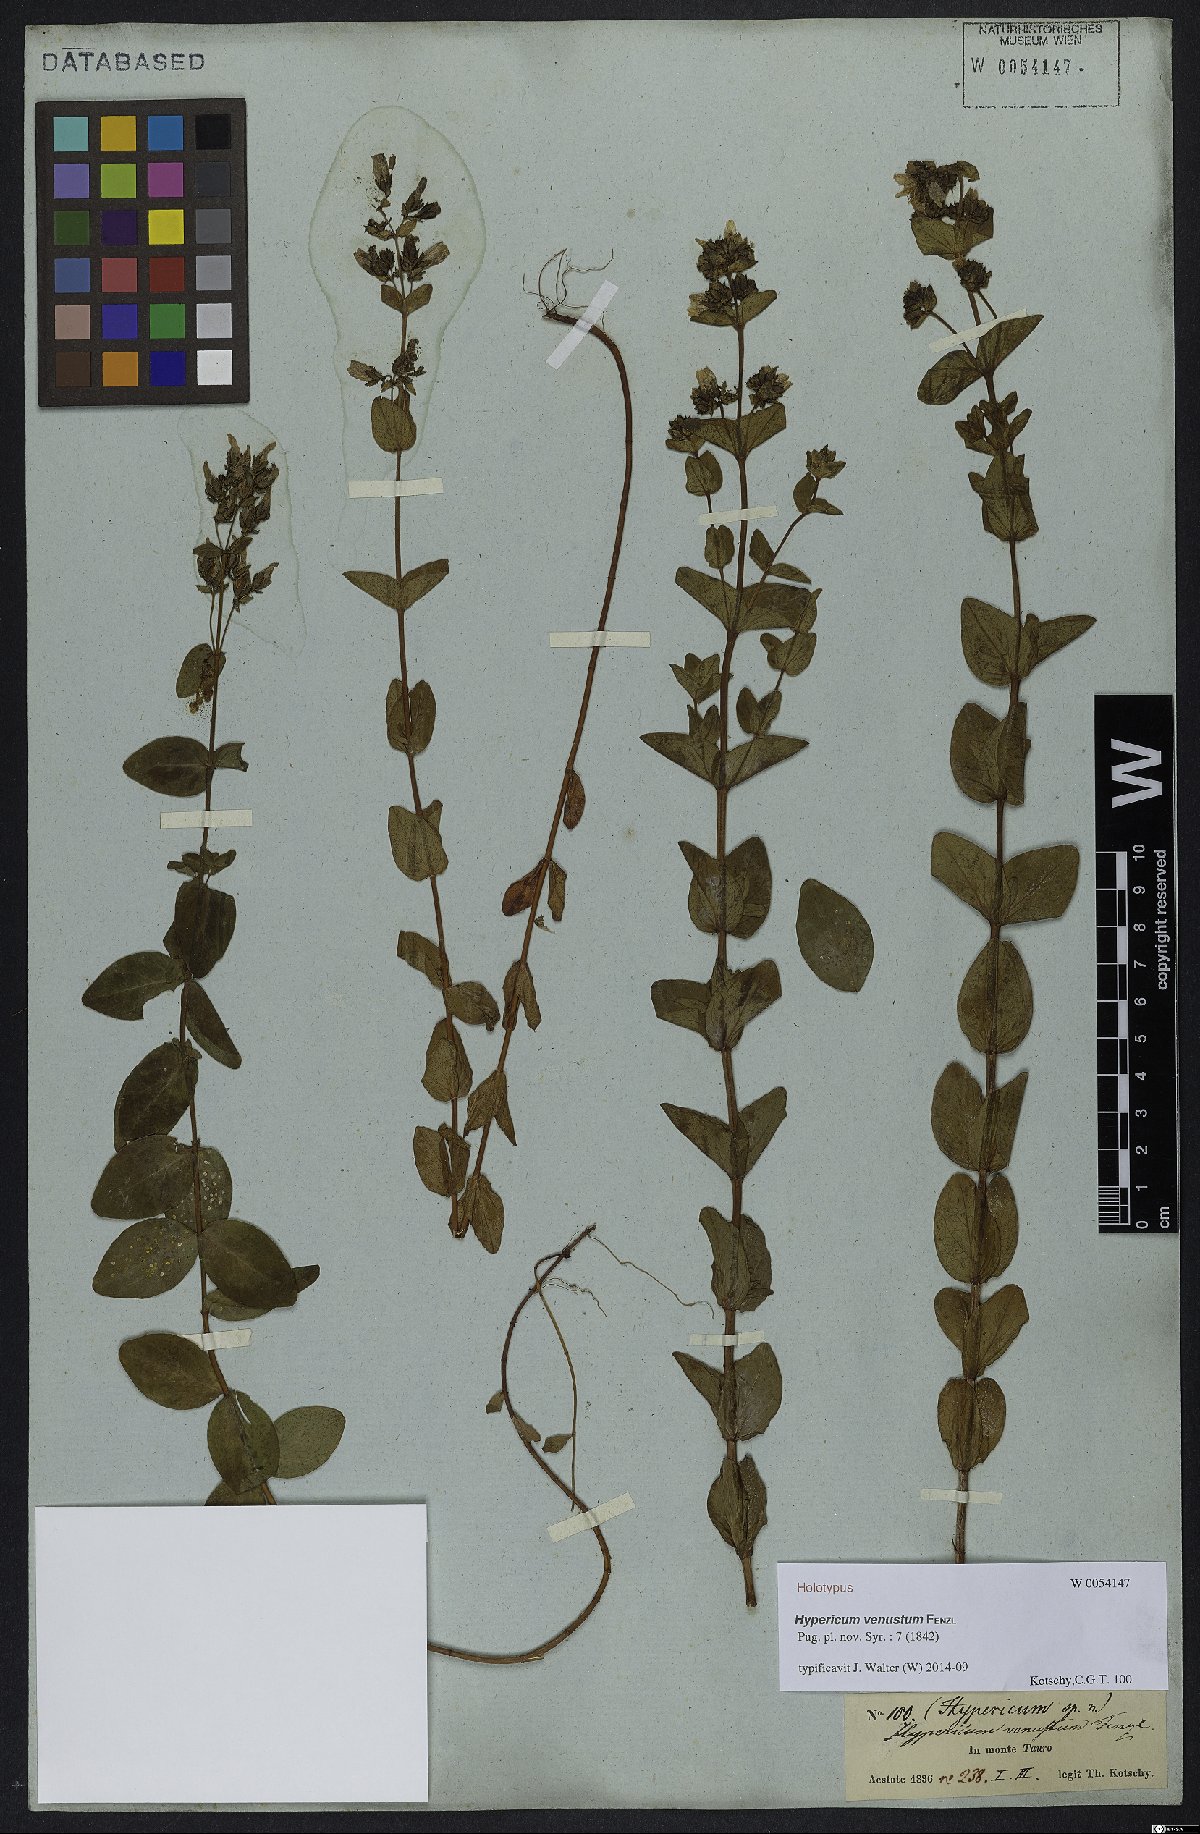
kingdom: Plantae
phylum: Tracheophyta
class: Magnoliopsida
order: Malpighiales
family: Hypericaceae
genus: Hypericum
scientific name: Hypericum venustum
